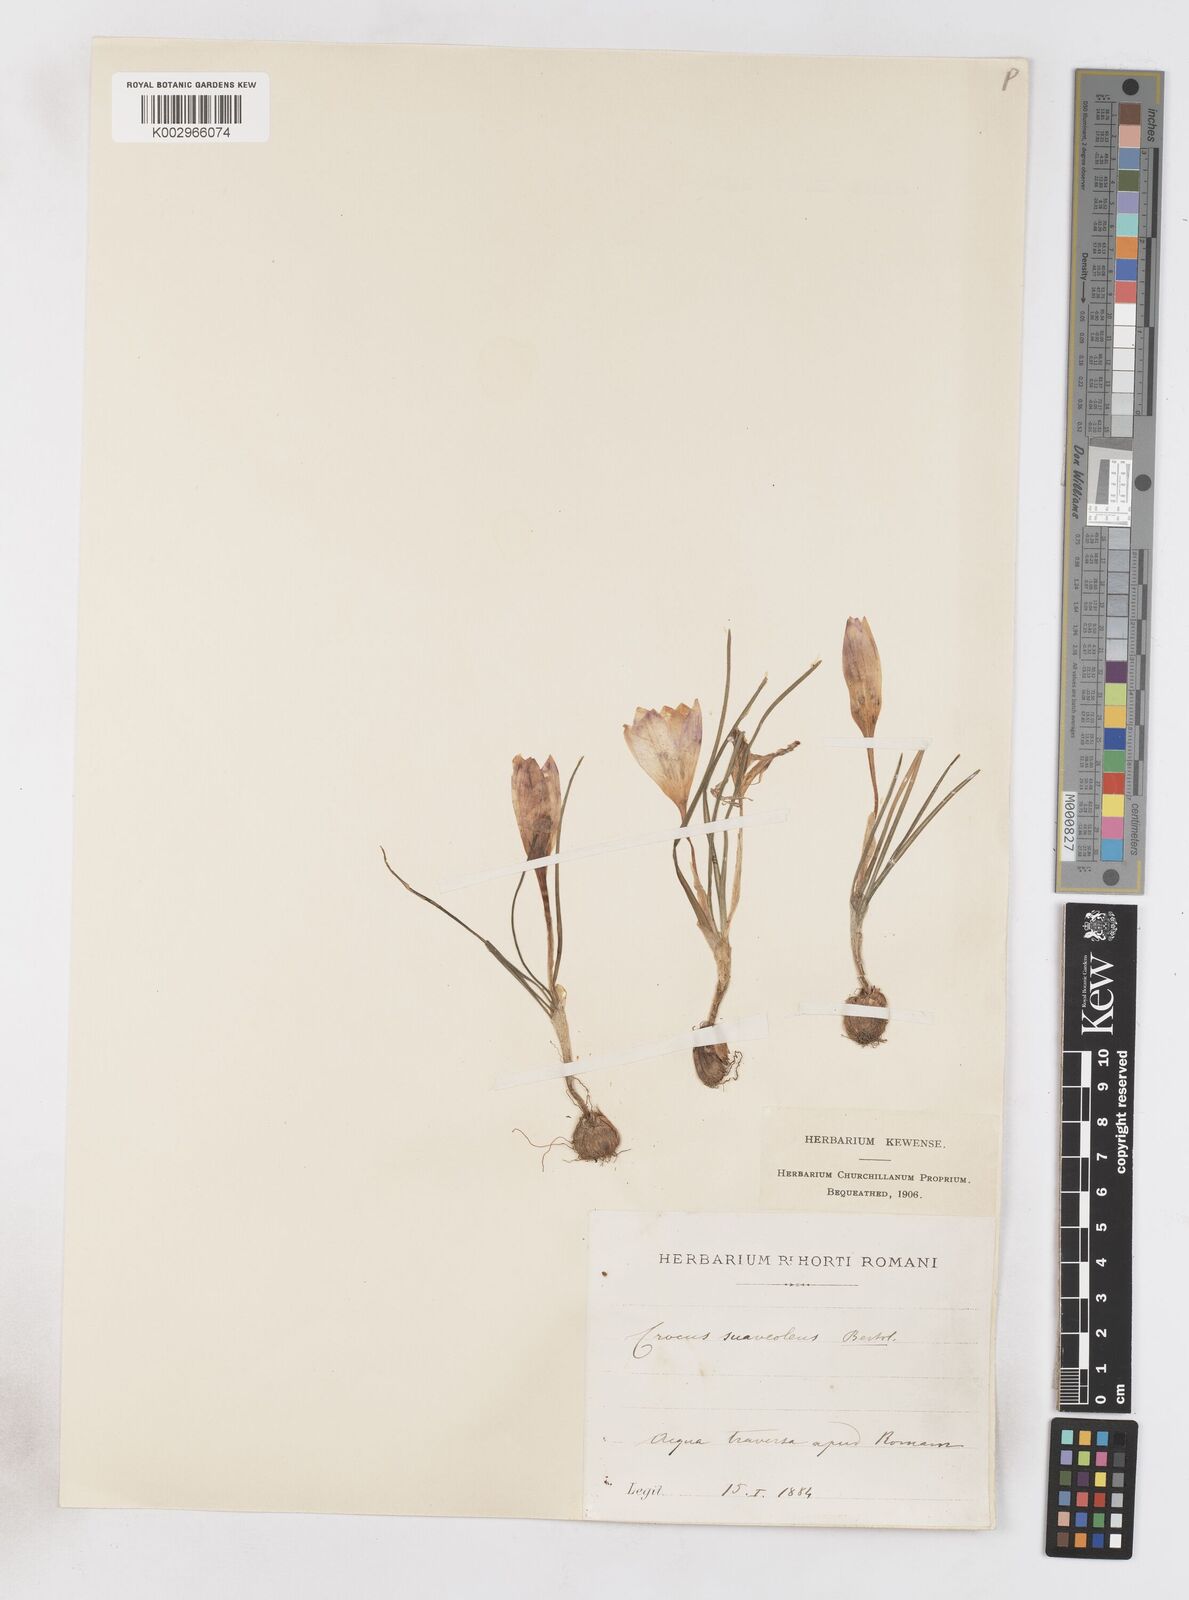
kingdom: Plantae
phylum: Tracheophyta
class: Liliopsida
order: Asparagales
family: Iridaceae
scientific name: Iridaceae
